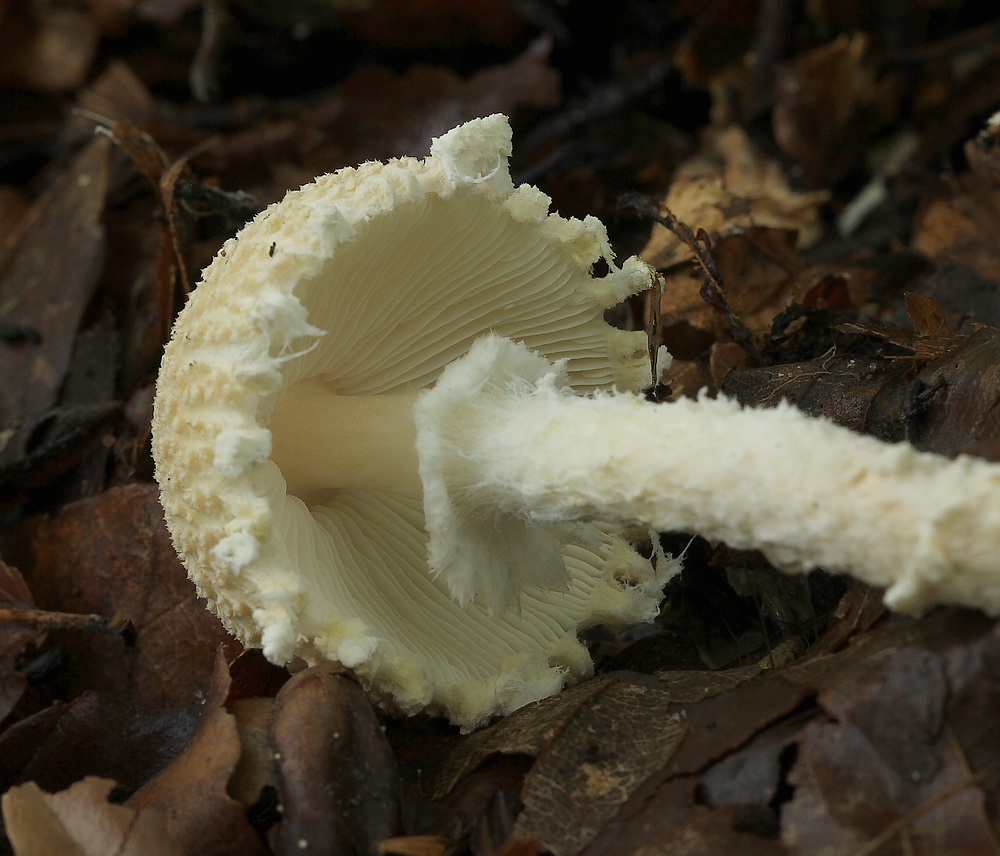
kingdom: Fungi
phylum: Basidiomycota
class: Agaricomycetes
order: Agaricales
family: Agaricaceae
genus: Lepiota
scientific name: Lepiota clypeolaria
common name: flosset parasolhat
